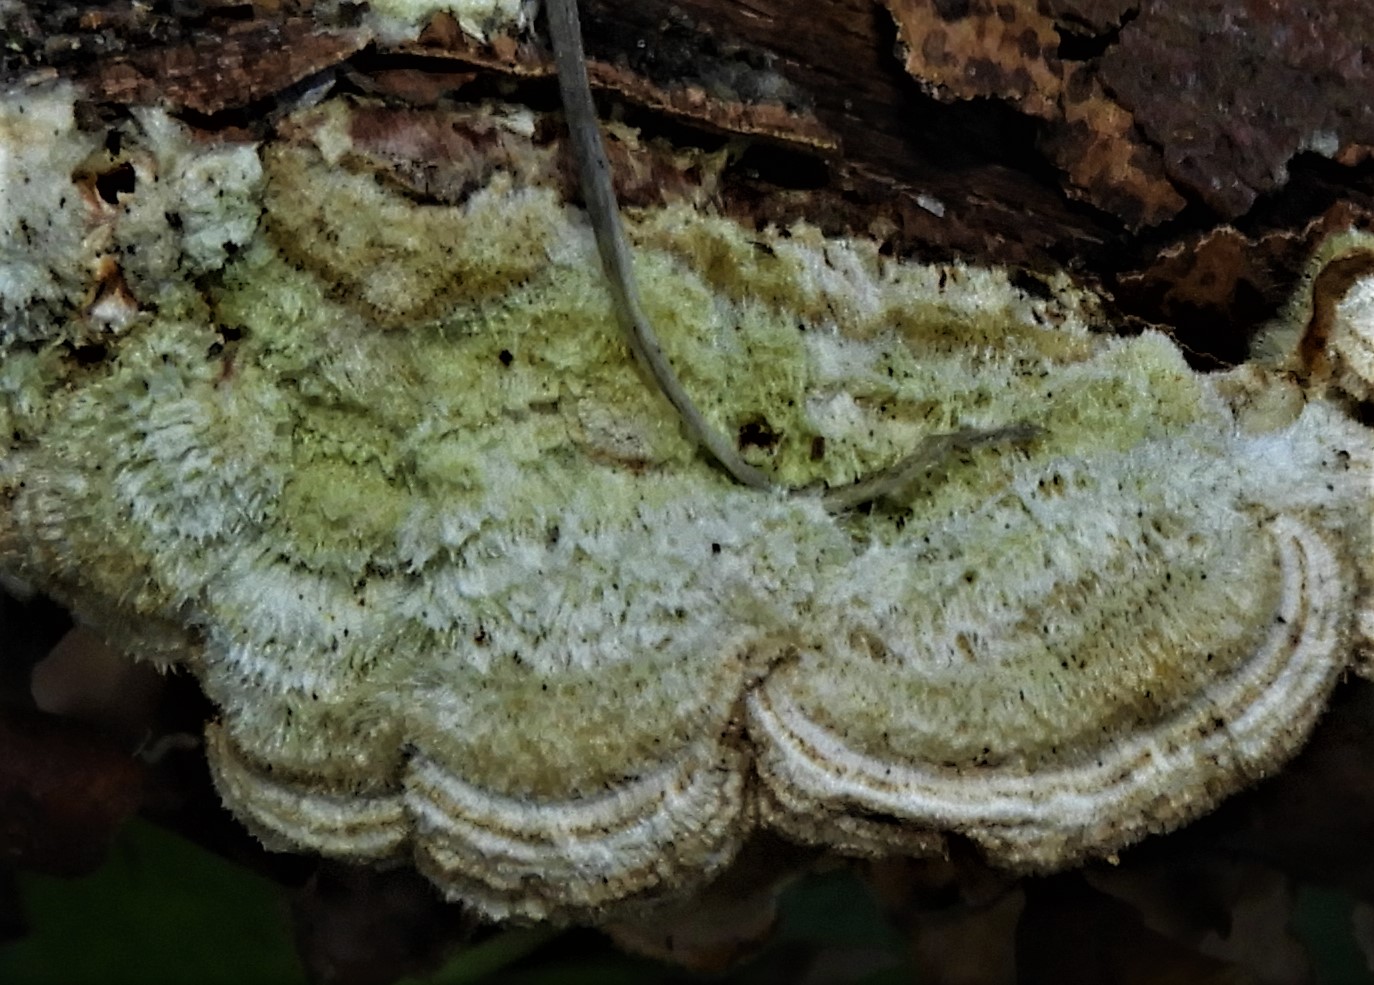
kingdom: Fungi
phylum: Basidiomycota
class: Agaricomycetes
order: Russulales
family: Stereaceae
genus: Stereum
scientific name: Stereum hirsutum
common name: håret lædersvamp
